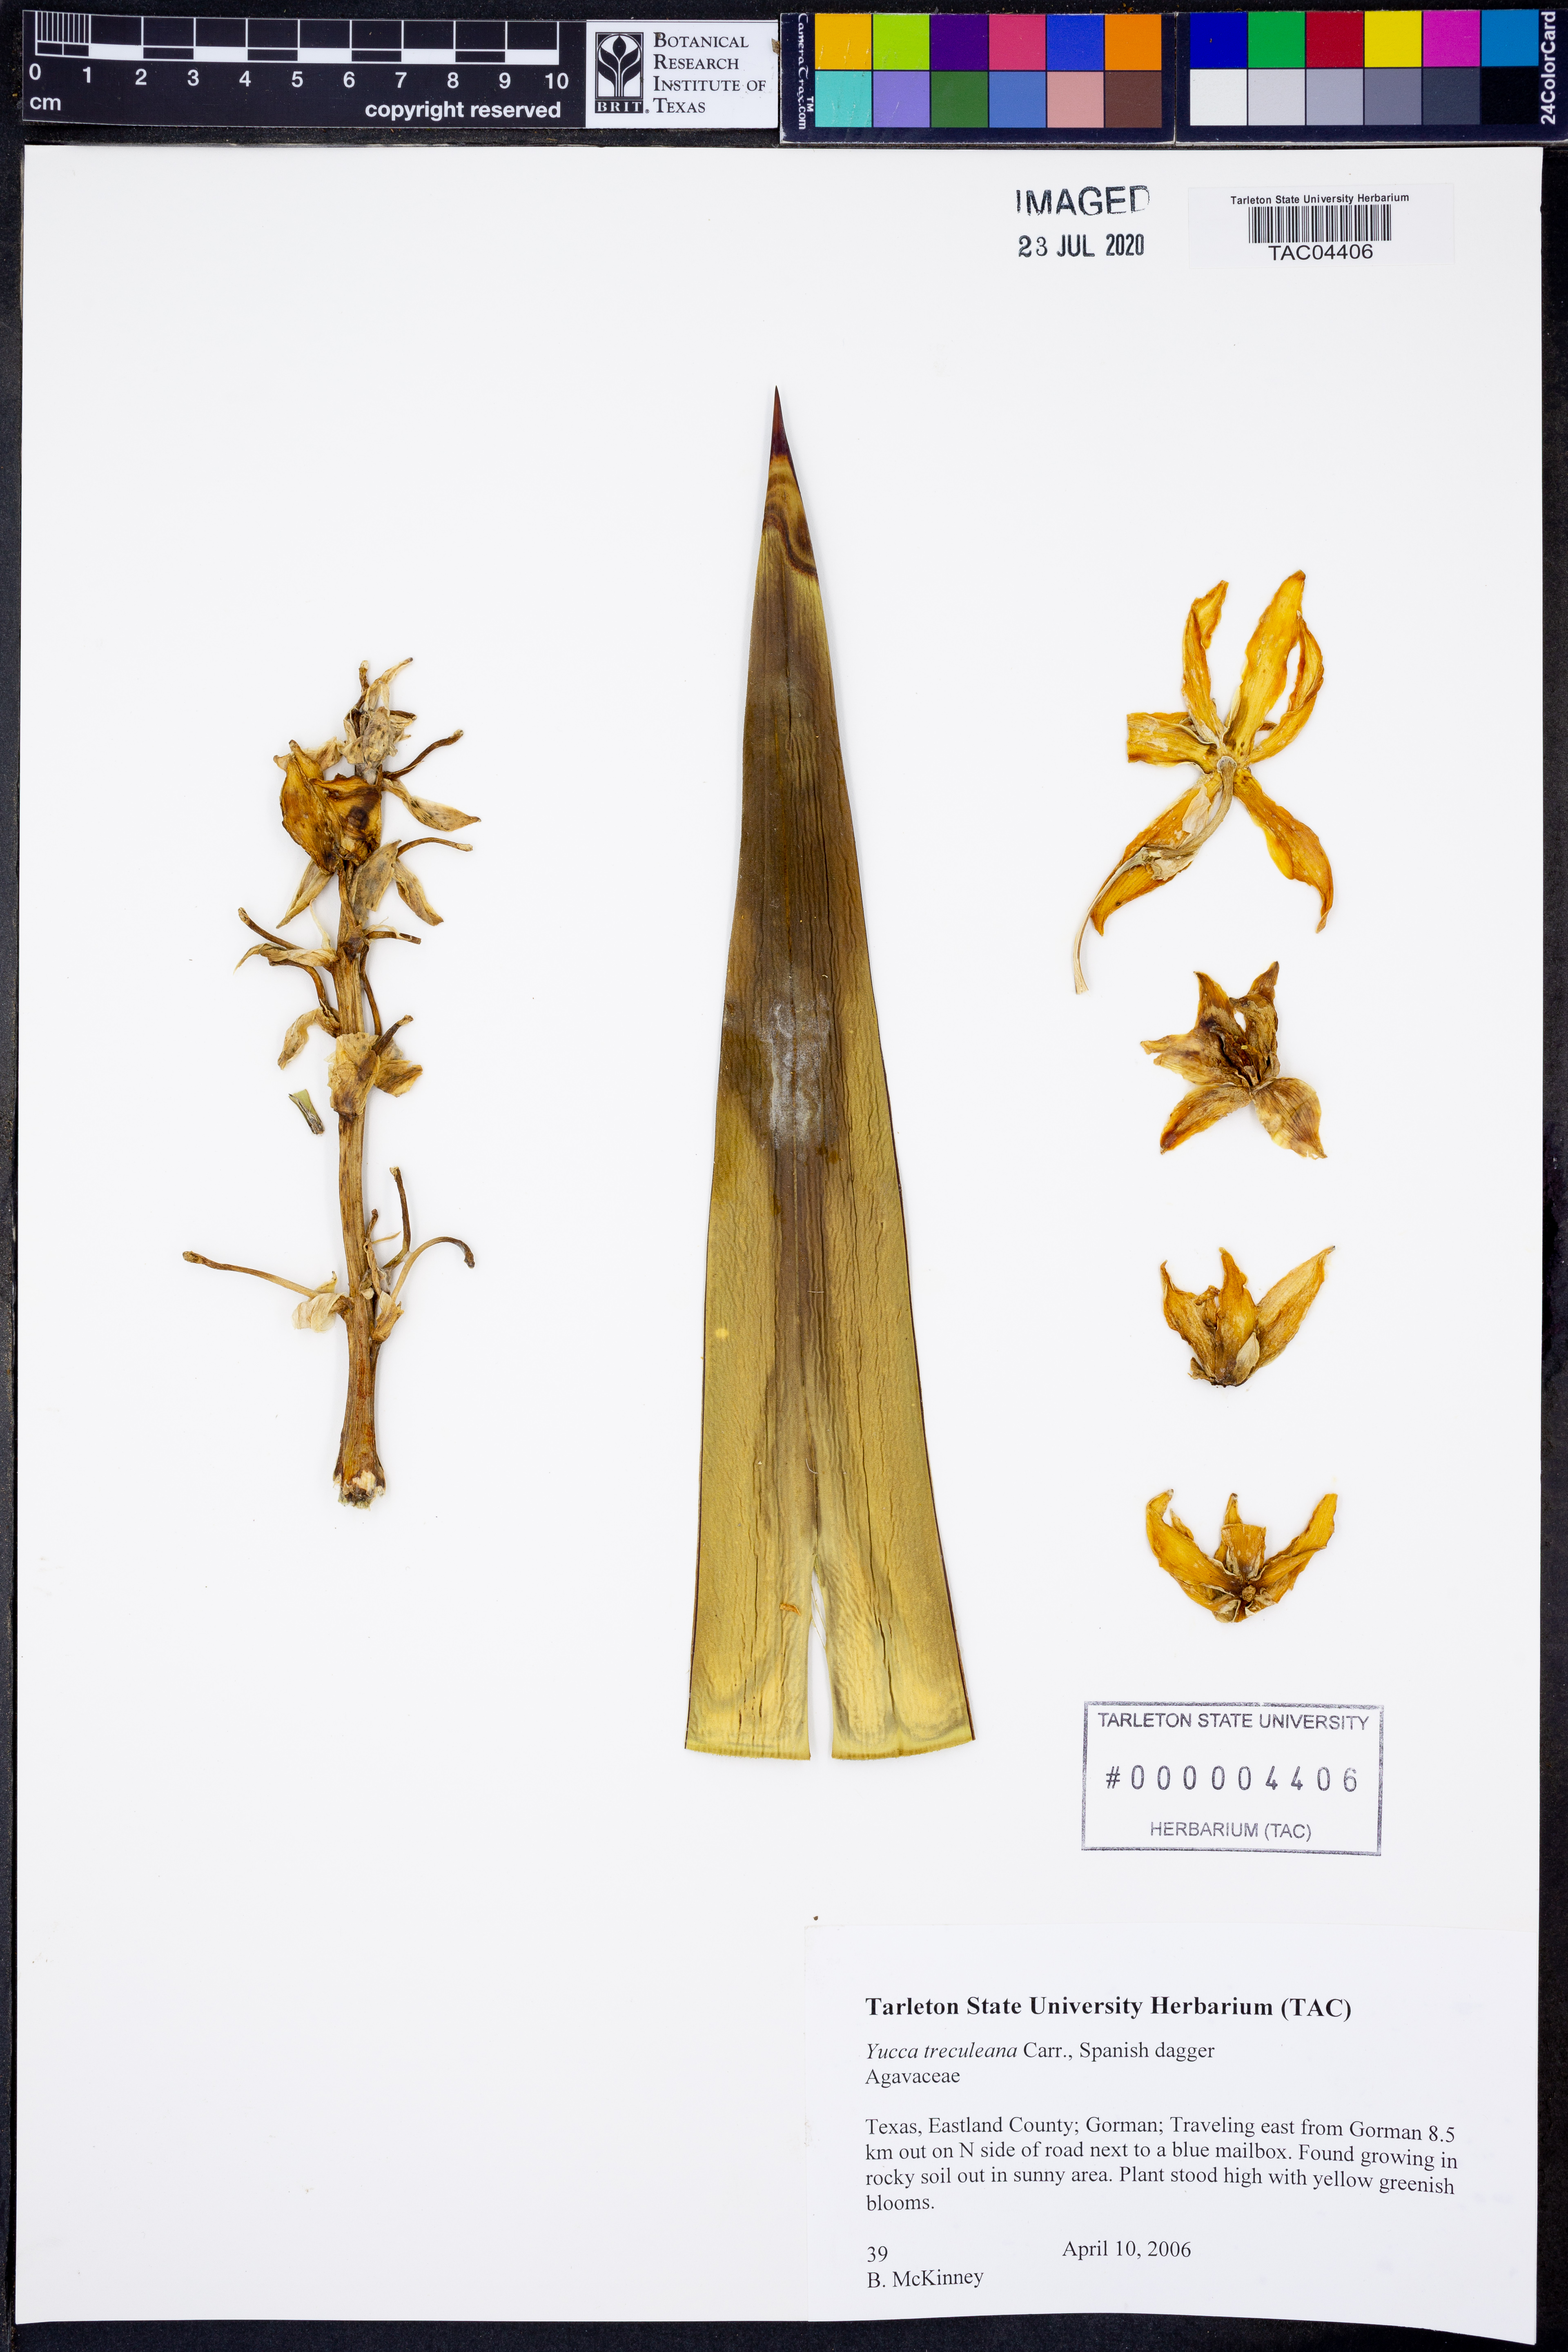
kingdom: Plantae
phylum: Tracheophyta
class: Liliopsida
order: Asparagales
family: Asparagaceae
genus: Yucca
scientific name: Yucca treculeana
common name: Spanish bayonet
